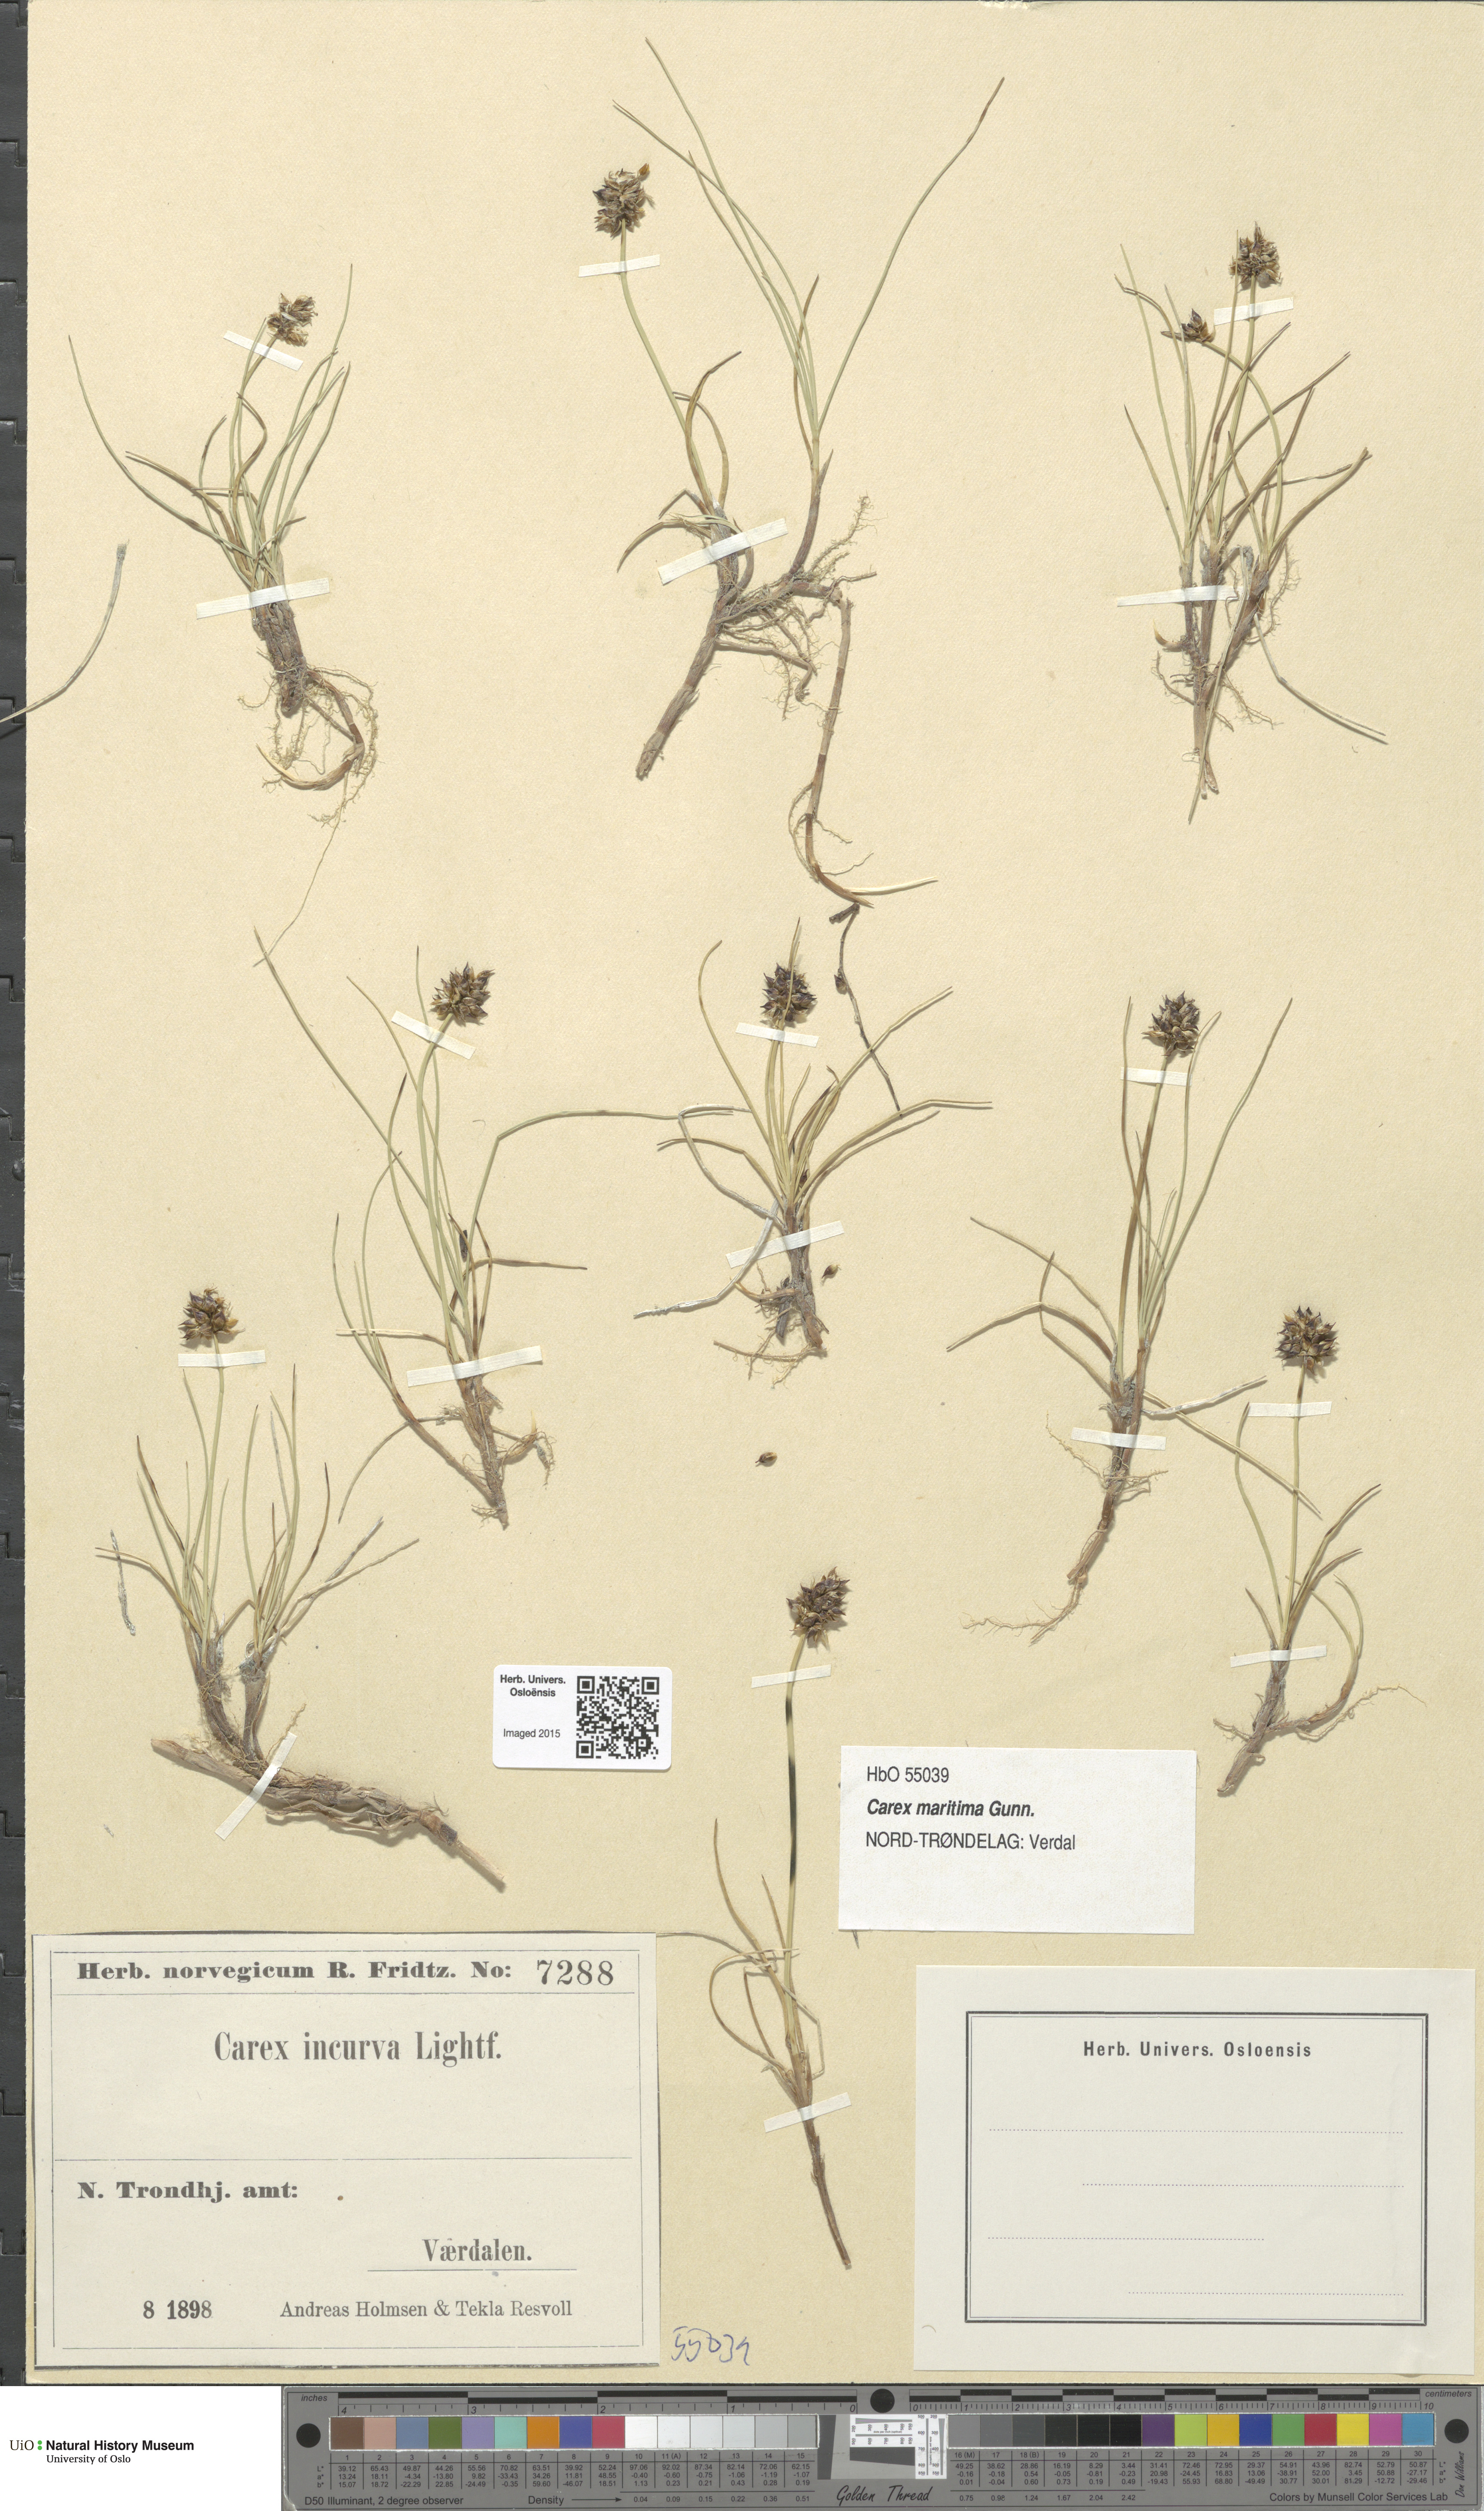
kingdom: Plantae
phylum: Tracheophyta
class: Liliopsida
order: Poales
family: Cyperaceae
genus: Carex
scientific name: Carex maritima
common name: Curved sedge
